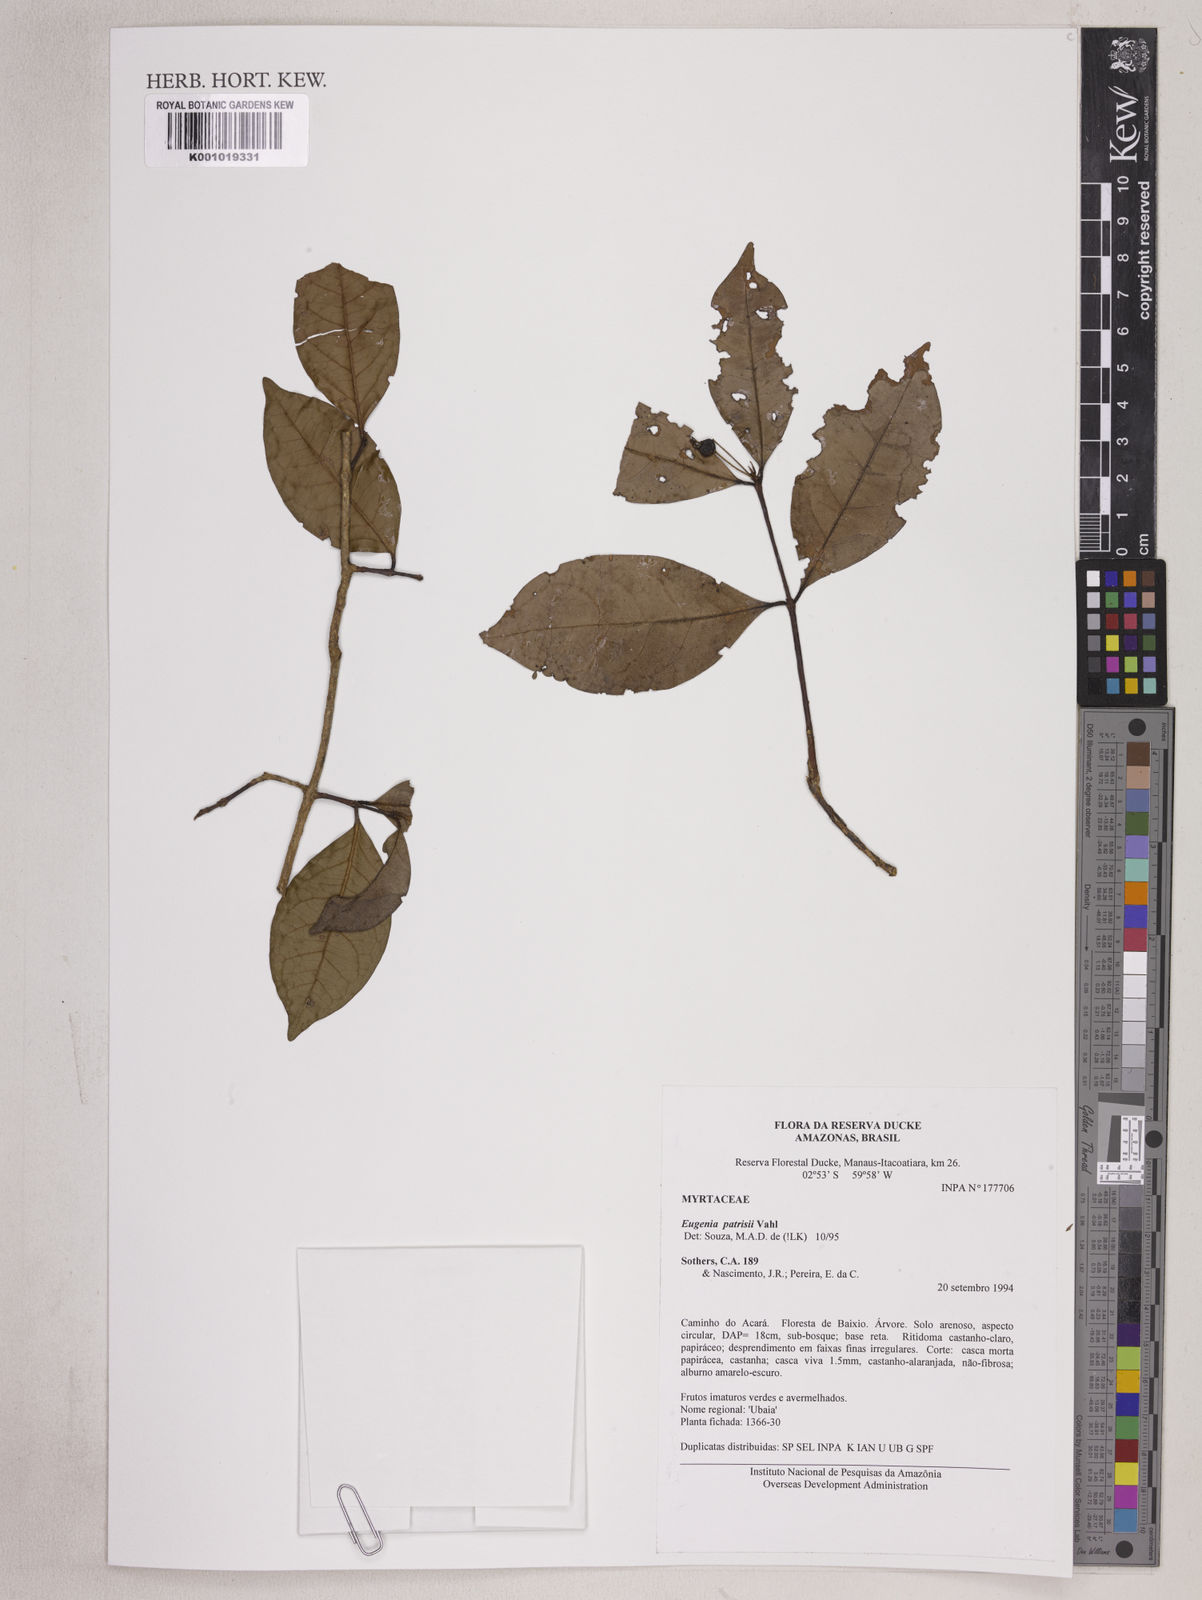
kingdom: Plantae
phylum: Tracheophyta
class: Magnoliopsida
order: Myrtales
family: Myrtaceae
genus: Eugenia
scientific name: Eugenia patrisii
